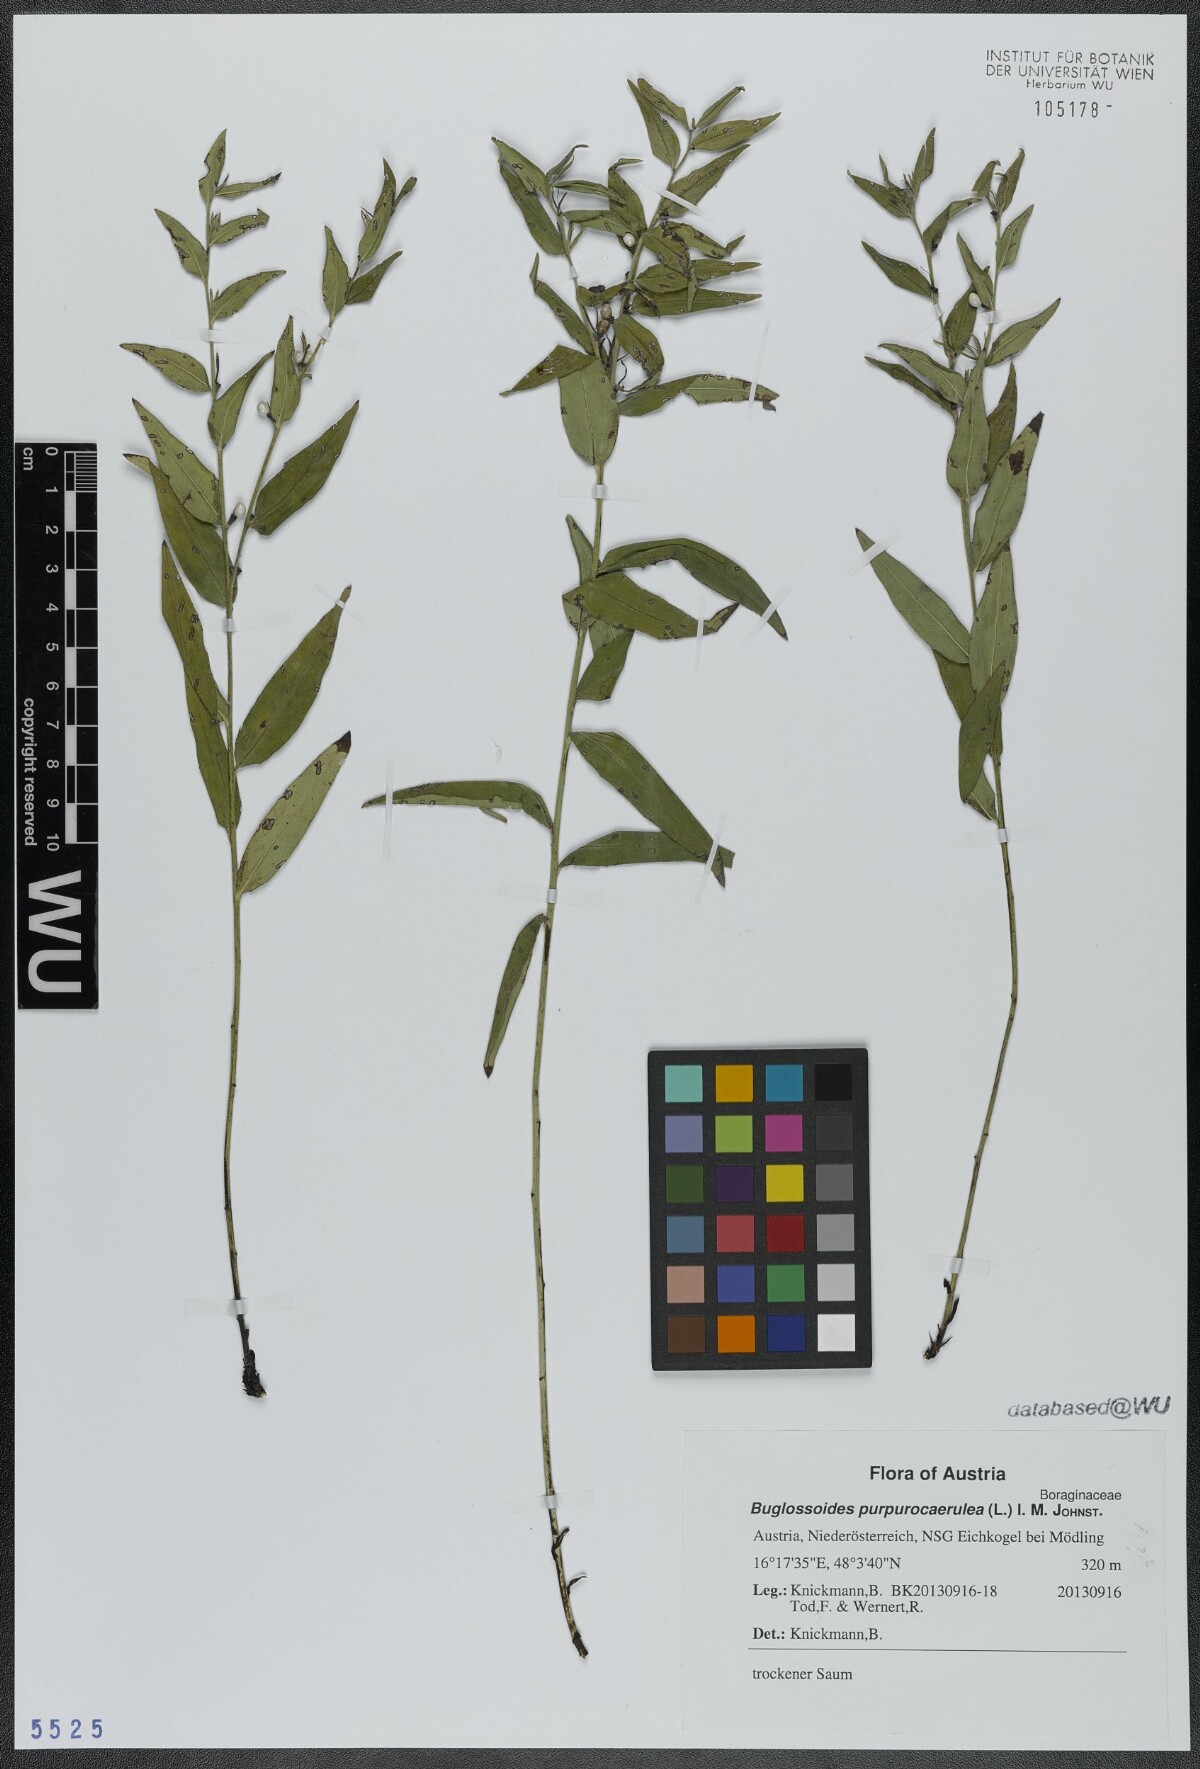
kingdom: Plantae
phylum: Tracheophyta
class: Magnoliopsida
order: Boraginales
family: Boraginaceae
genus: Aegonychon
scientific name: Aegonychon purpurocaeruleum
